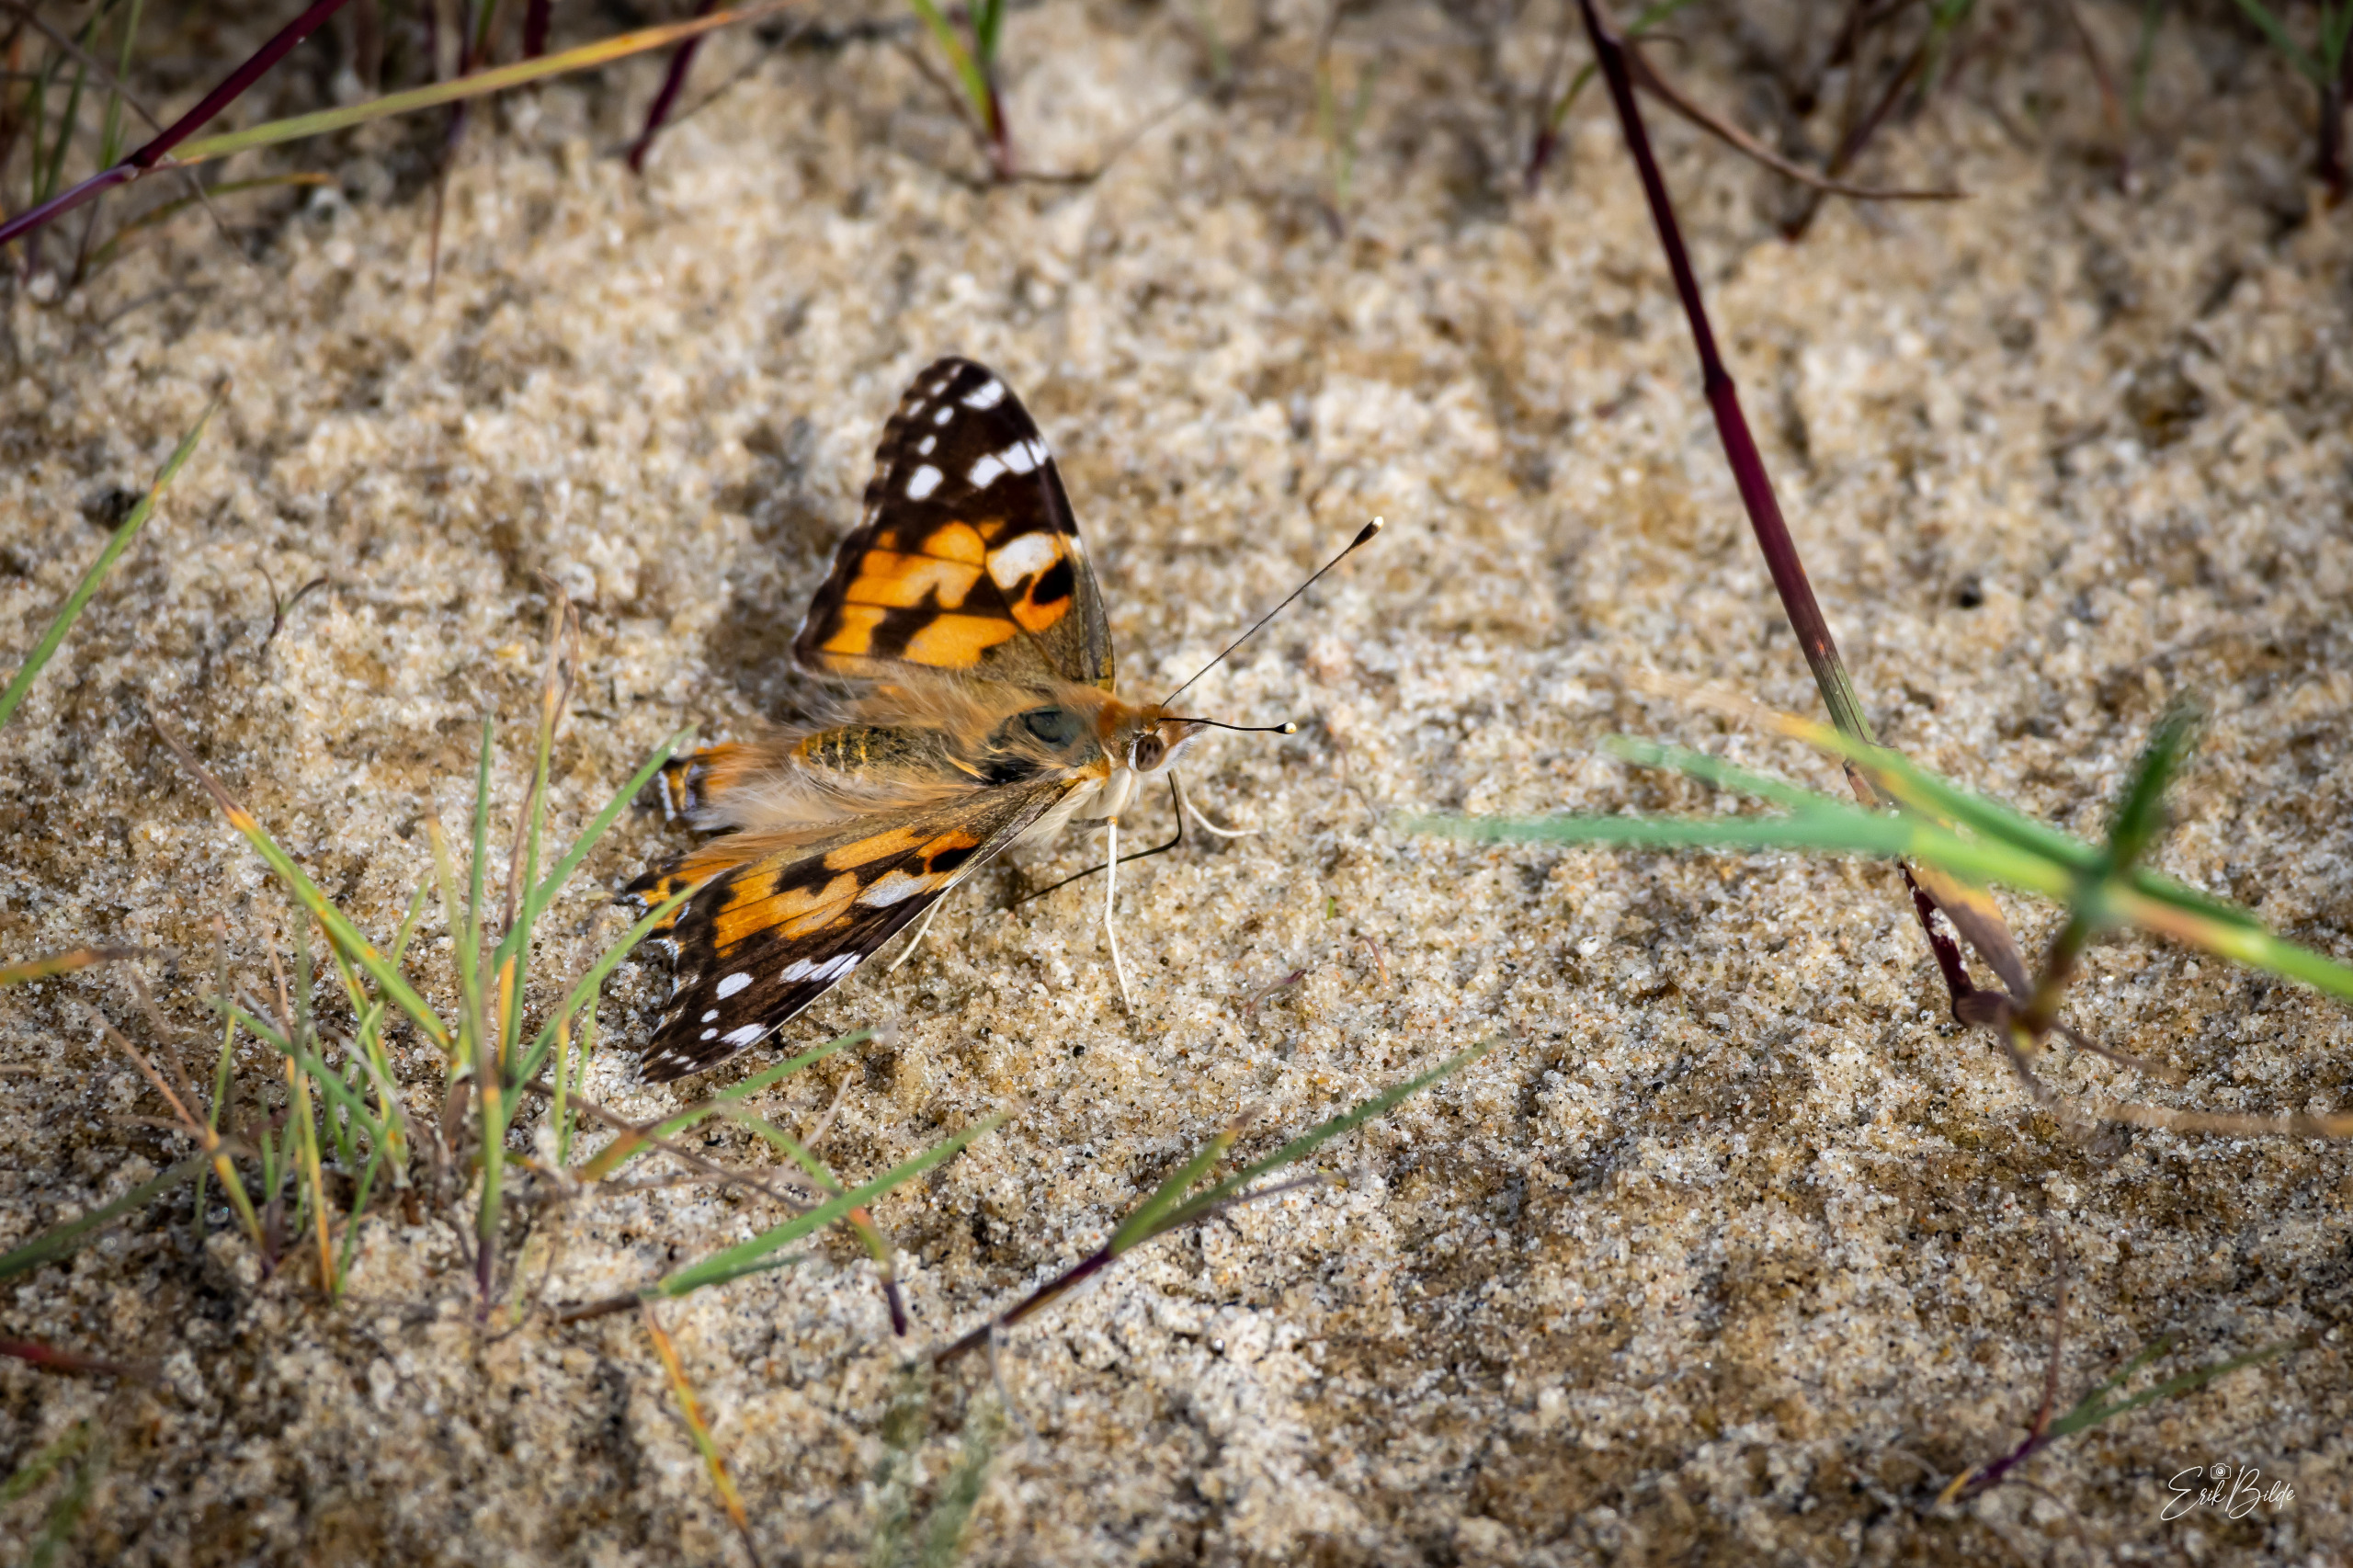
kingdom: Animalia
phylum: Arthropoda
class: Insecta
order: Lepidoptera
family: Nymphalidae
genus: Vanessa
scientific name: Vanessa cardui
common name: Tidselsommerfugl
